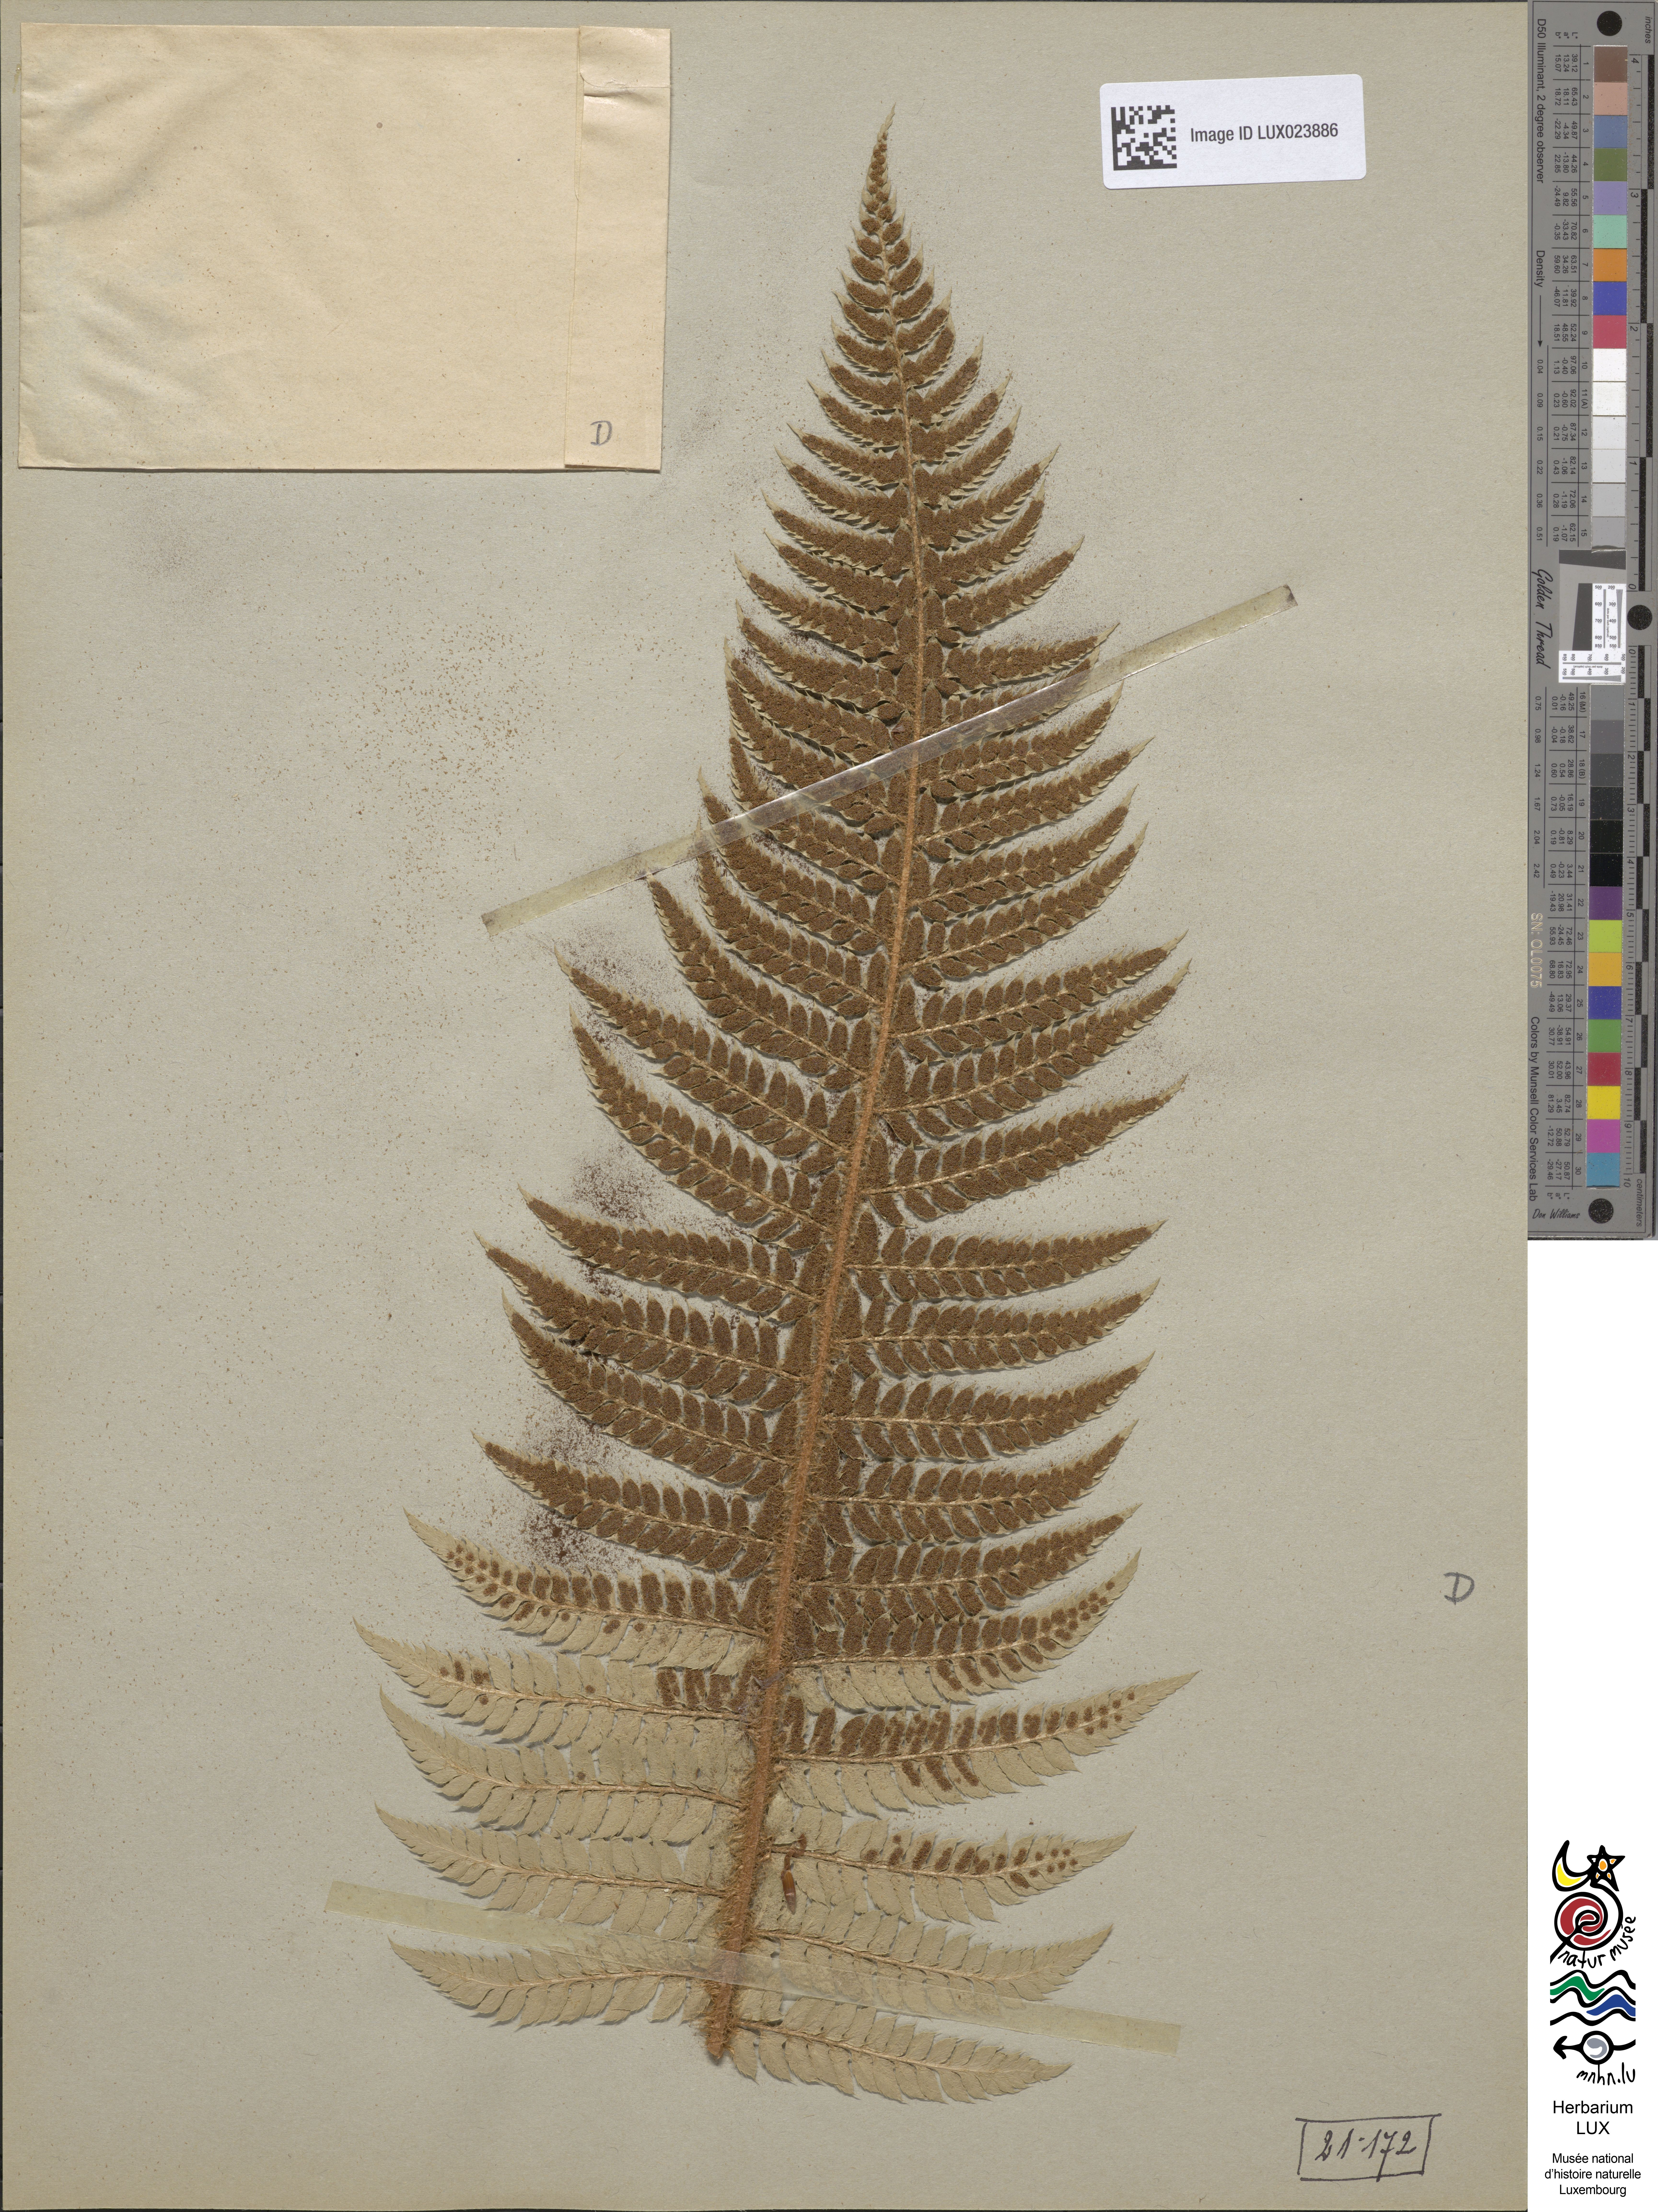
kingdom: Plantae
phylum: Tracheophyta
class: Polypodiopsida
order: Polypodiales
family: Dryopteridaceae
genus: Polystichum
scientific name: Polystichum aculeatum
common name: Hard shield-fern
